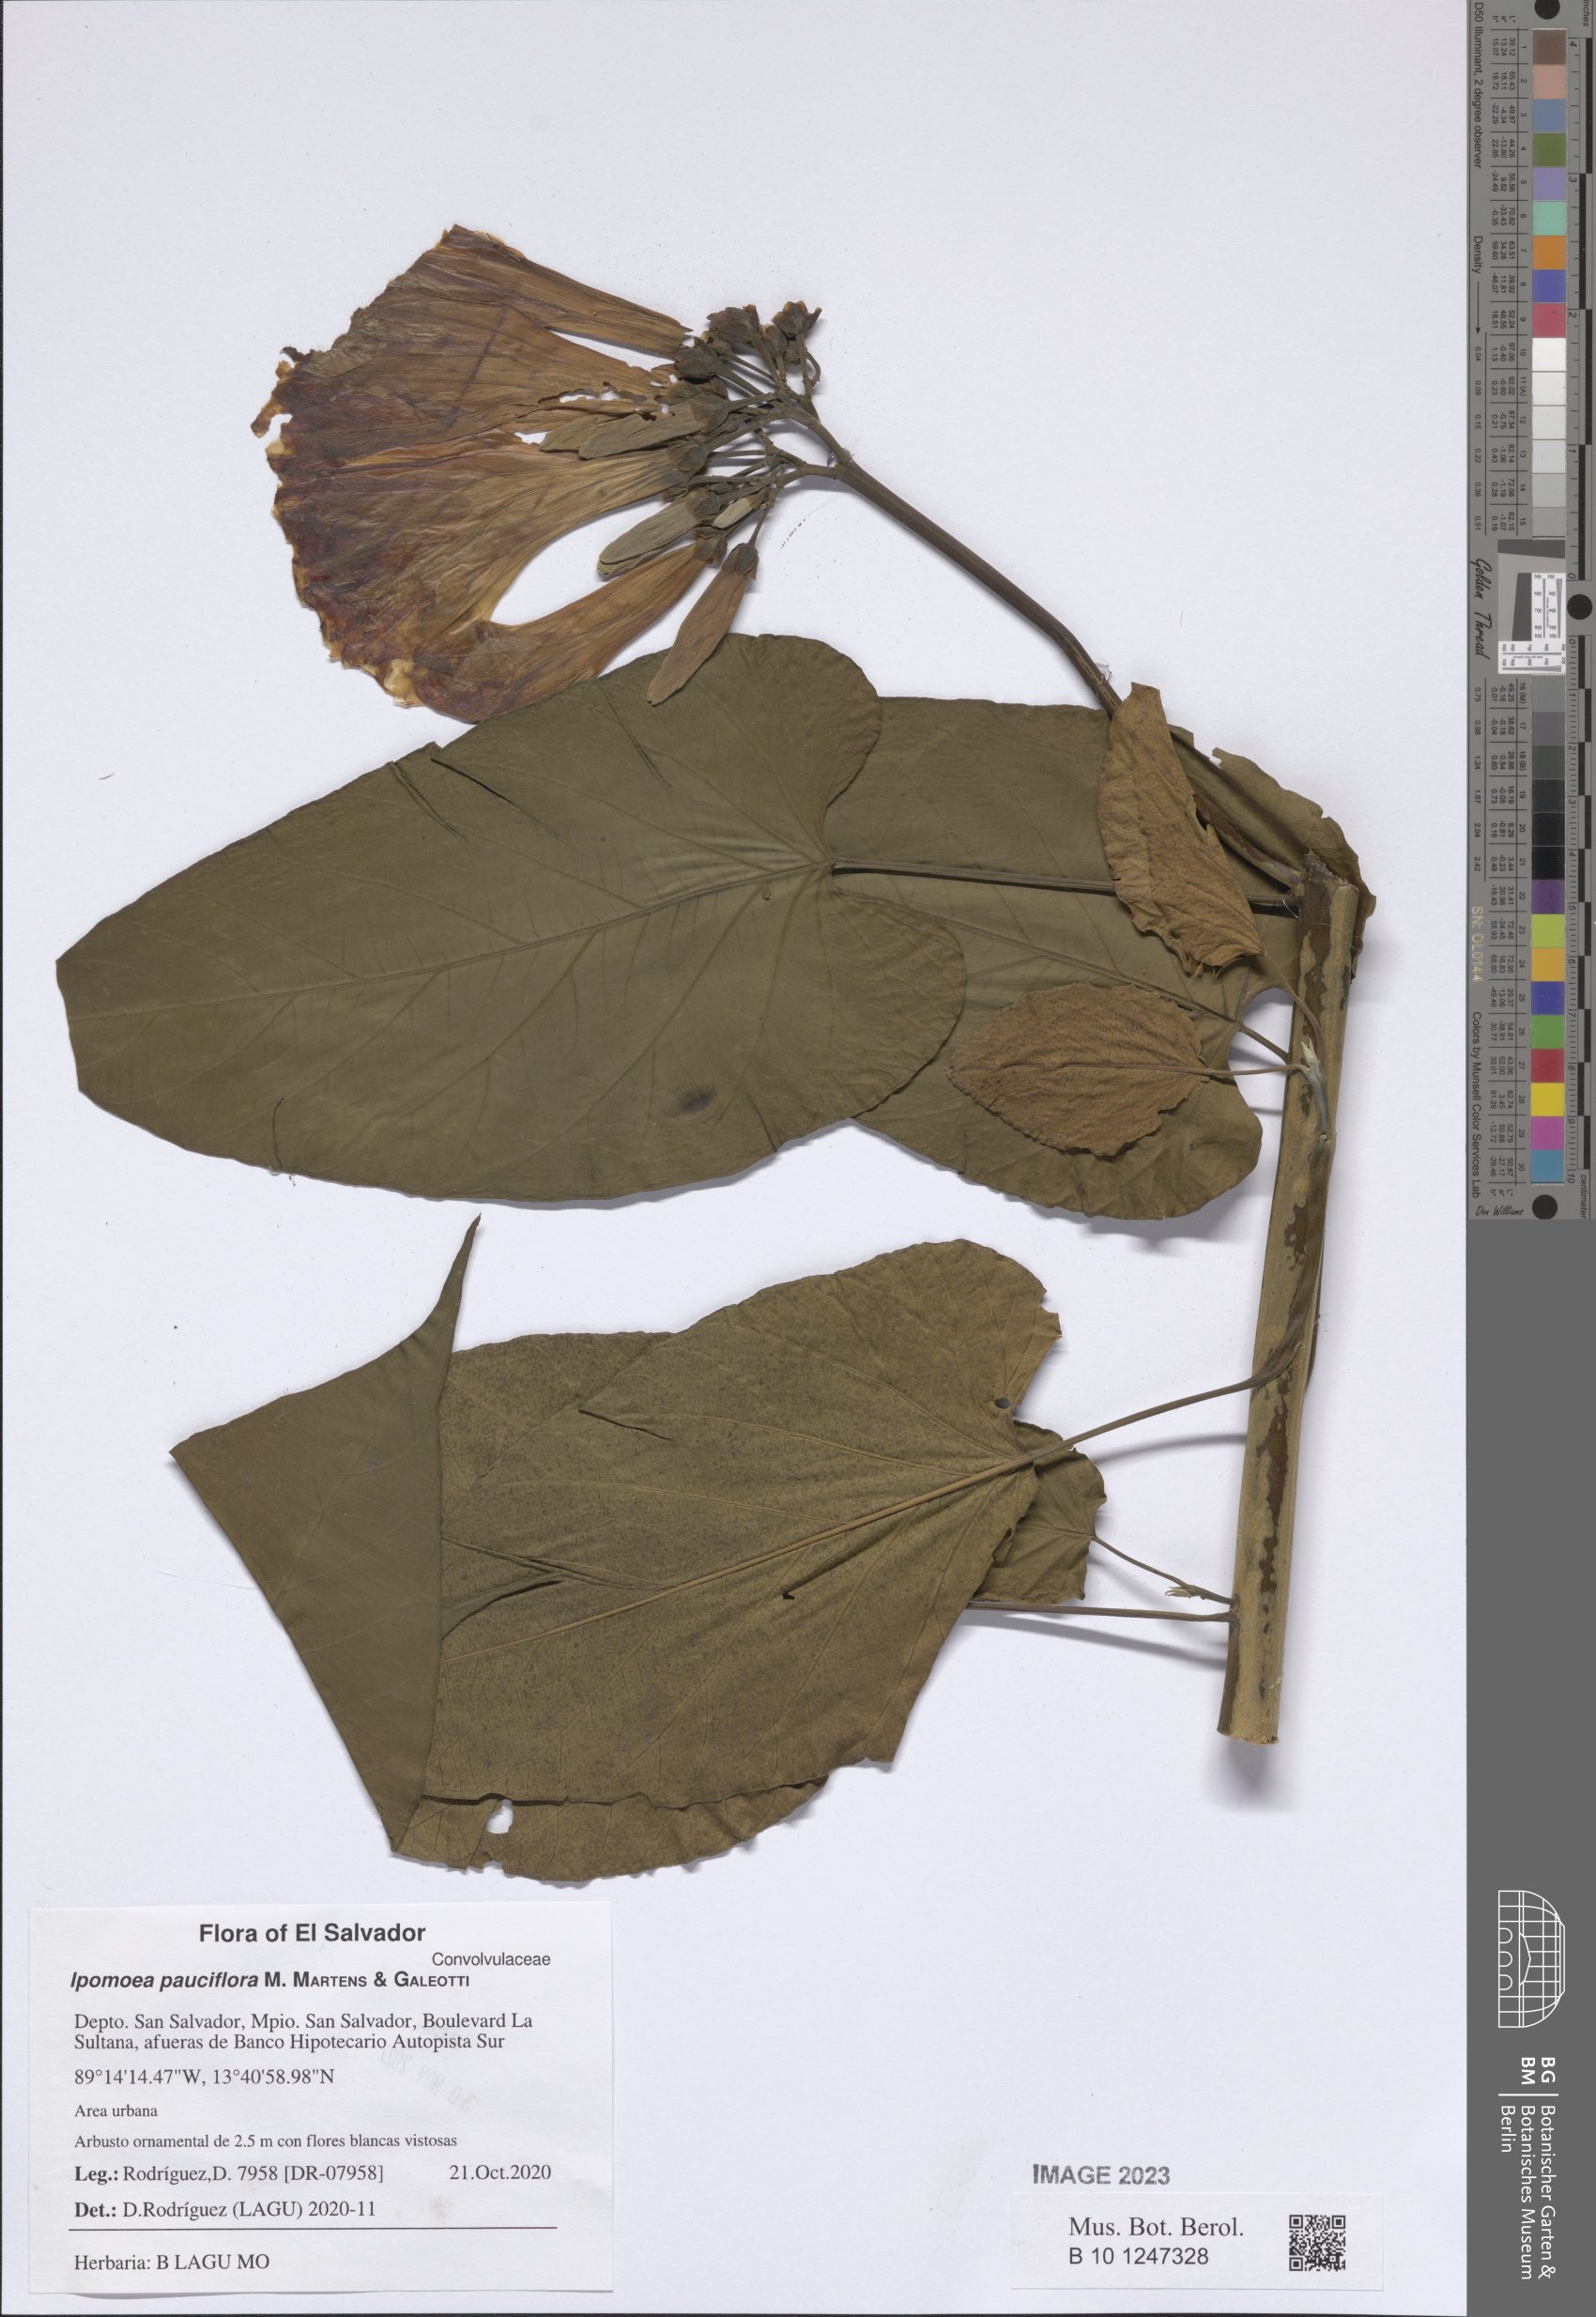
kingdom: Plantae
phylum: Tracheophyta
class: Magnoliopsida
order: Solanales
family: Convolvulaceae
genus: Ipomoea
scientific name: Ipomoea pauciflora
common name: Tree morningglory
